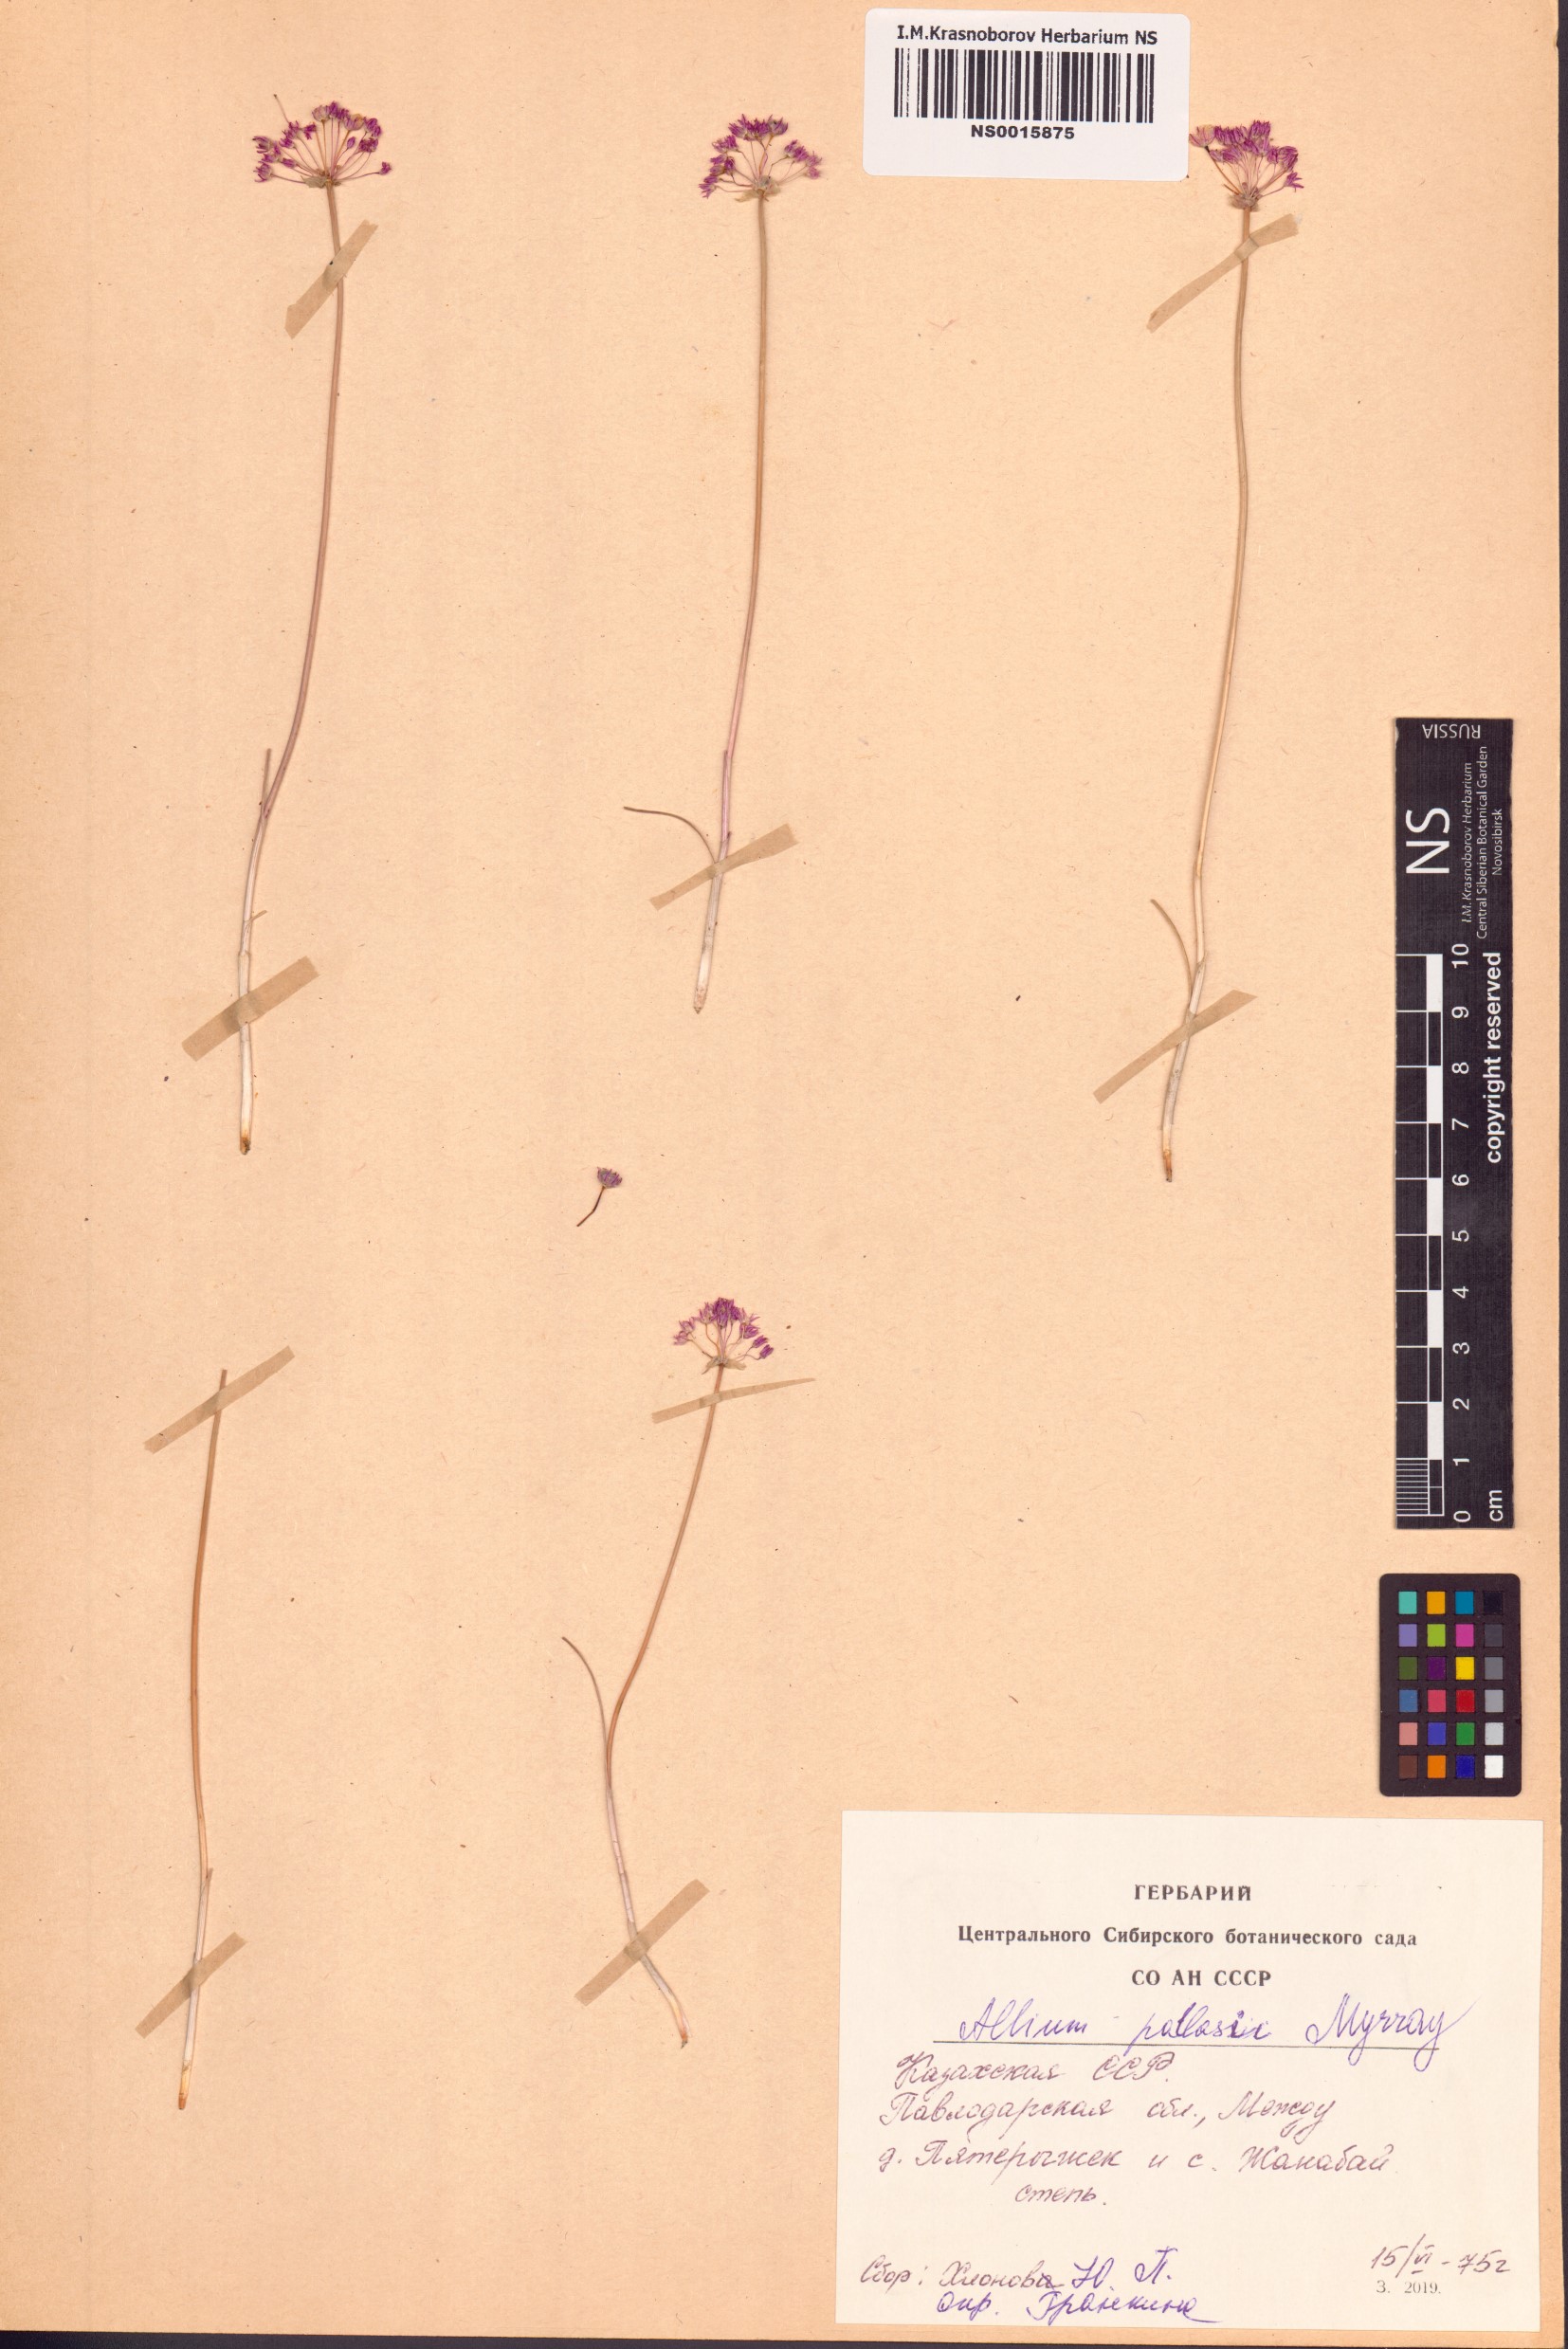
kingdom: Plantae
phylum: Tracheophyta
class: Liliopsida
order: Asparagales
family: Amaryllidaceae
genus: Allium
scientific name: Allium pallasii
